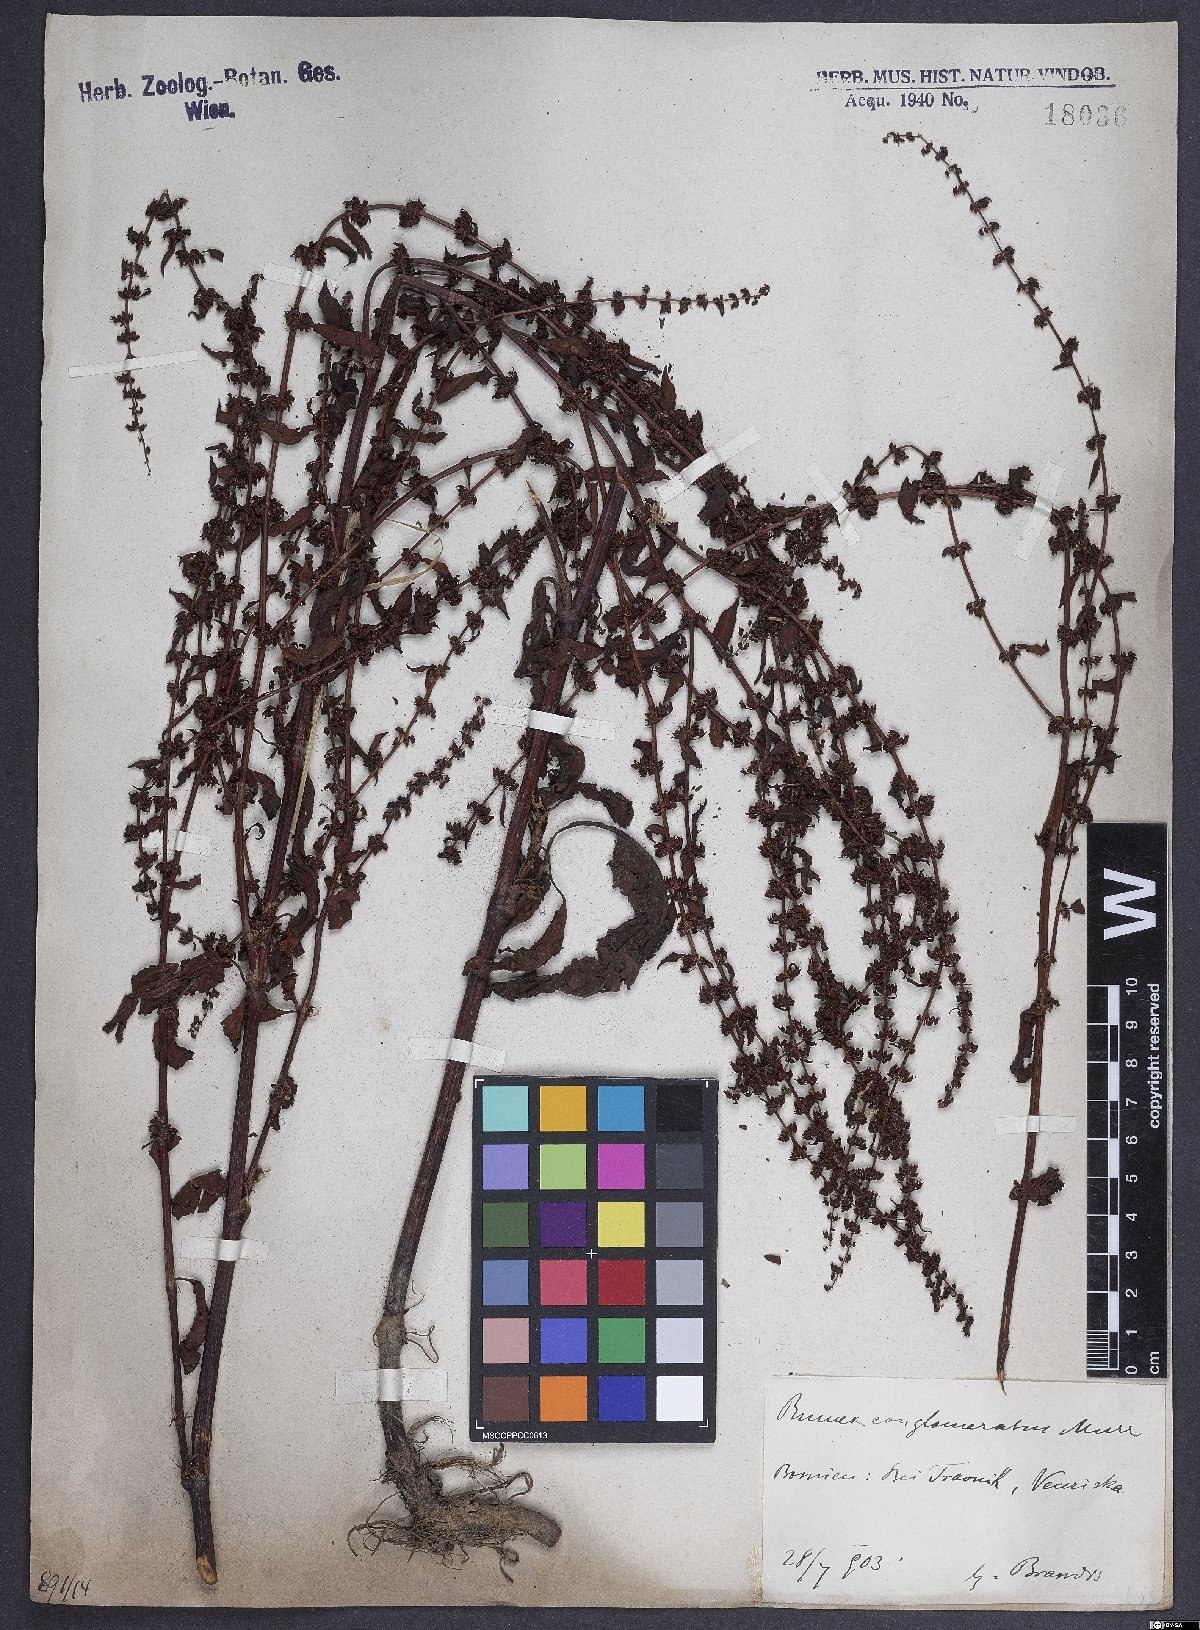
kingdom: Plantae
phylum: Tracheophyta
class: Magnoliopsida
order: Caryophyllales
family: Polygonaceae
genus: Rumex
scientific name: Rumex conglomeratus
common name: Clustered dock
